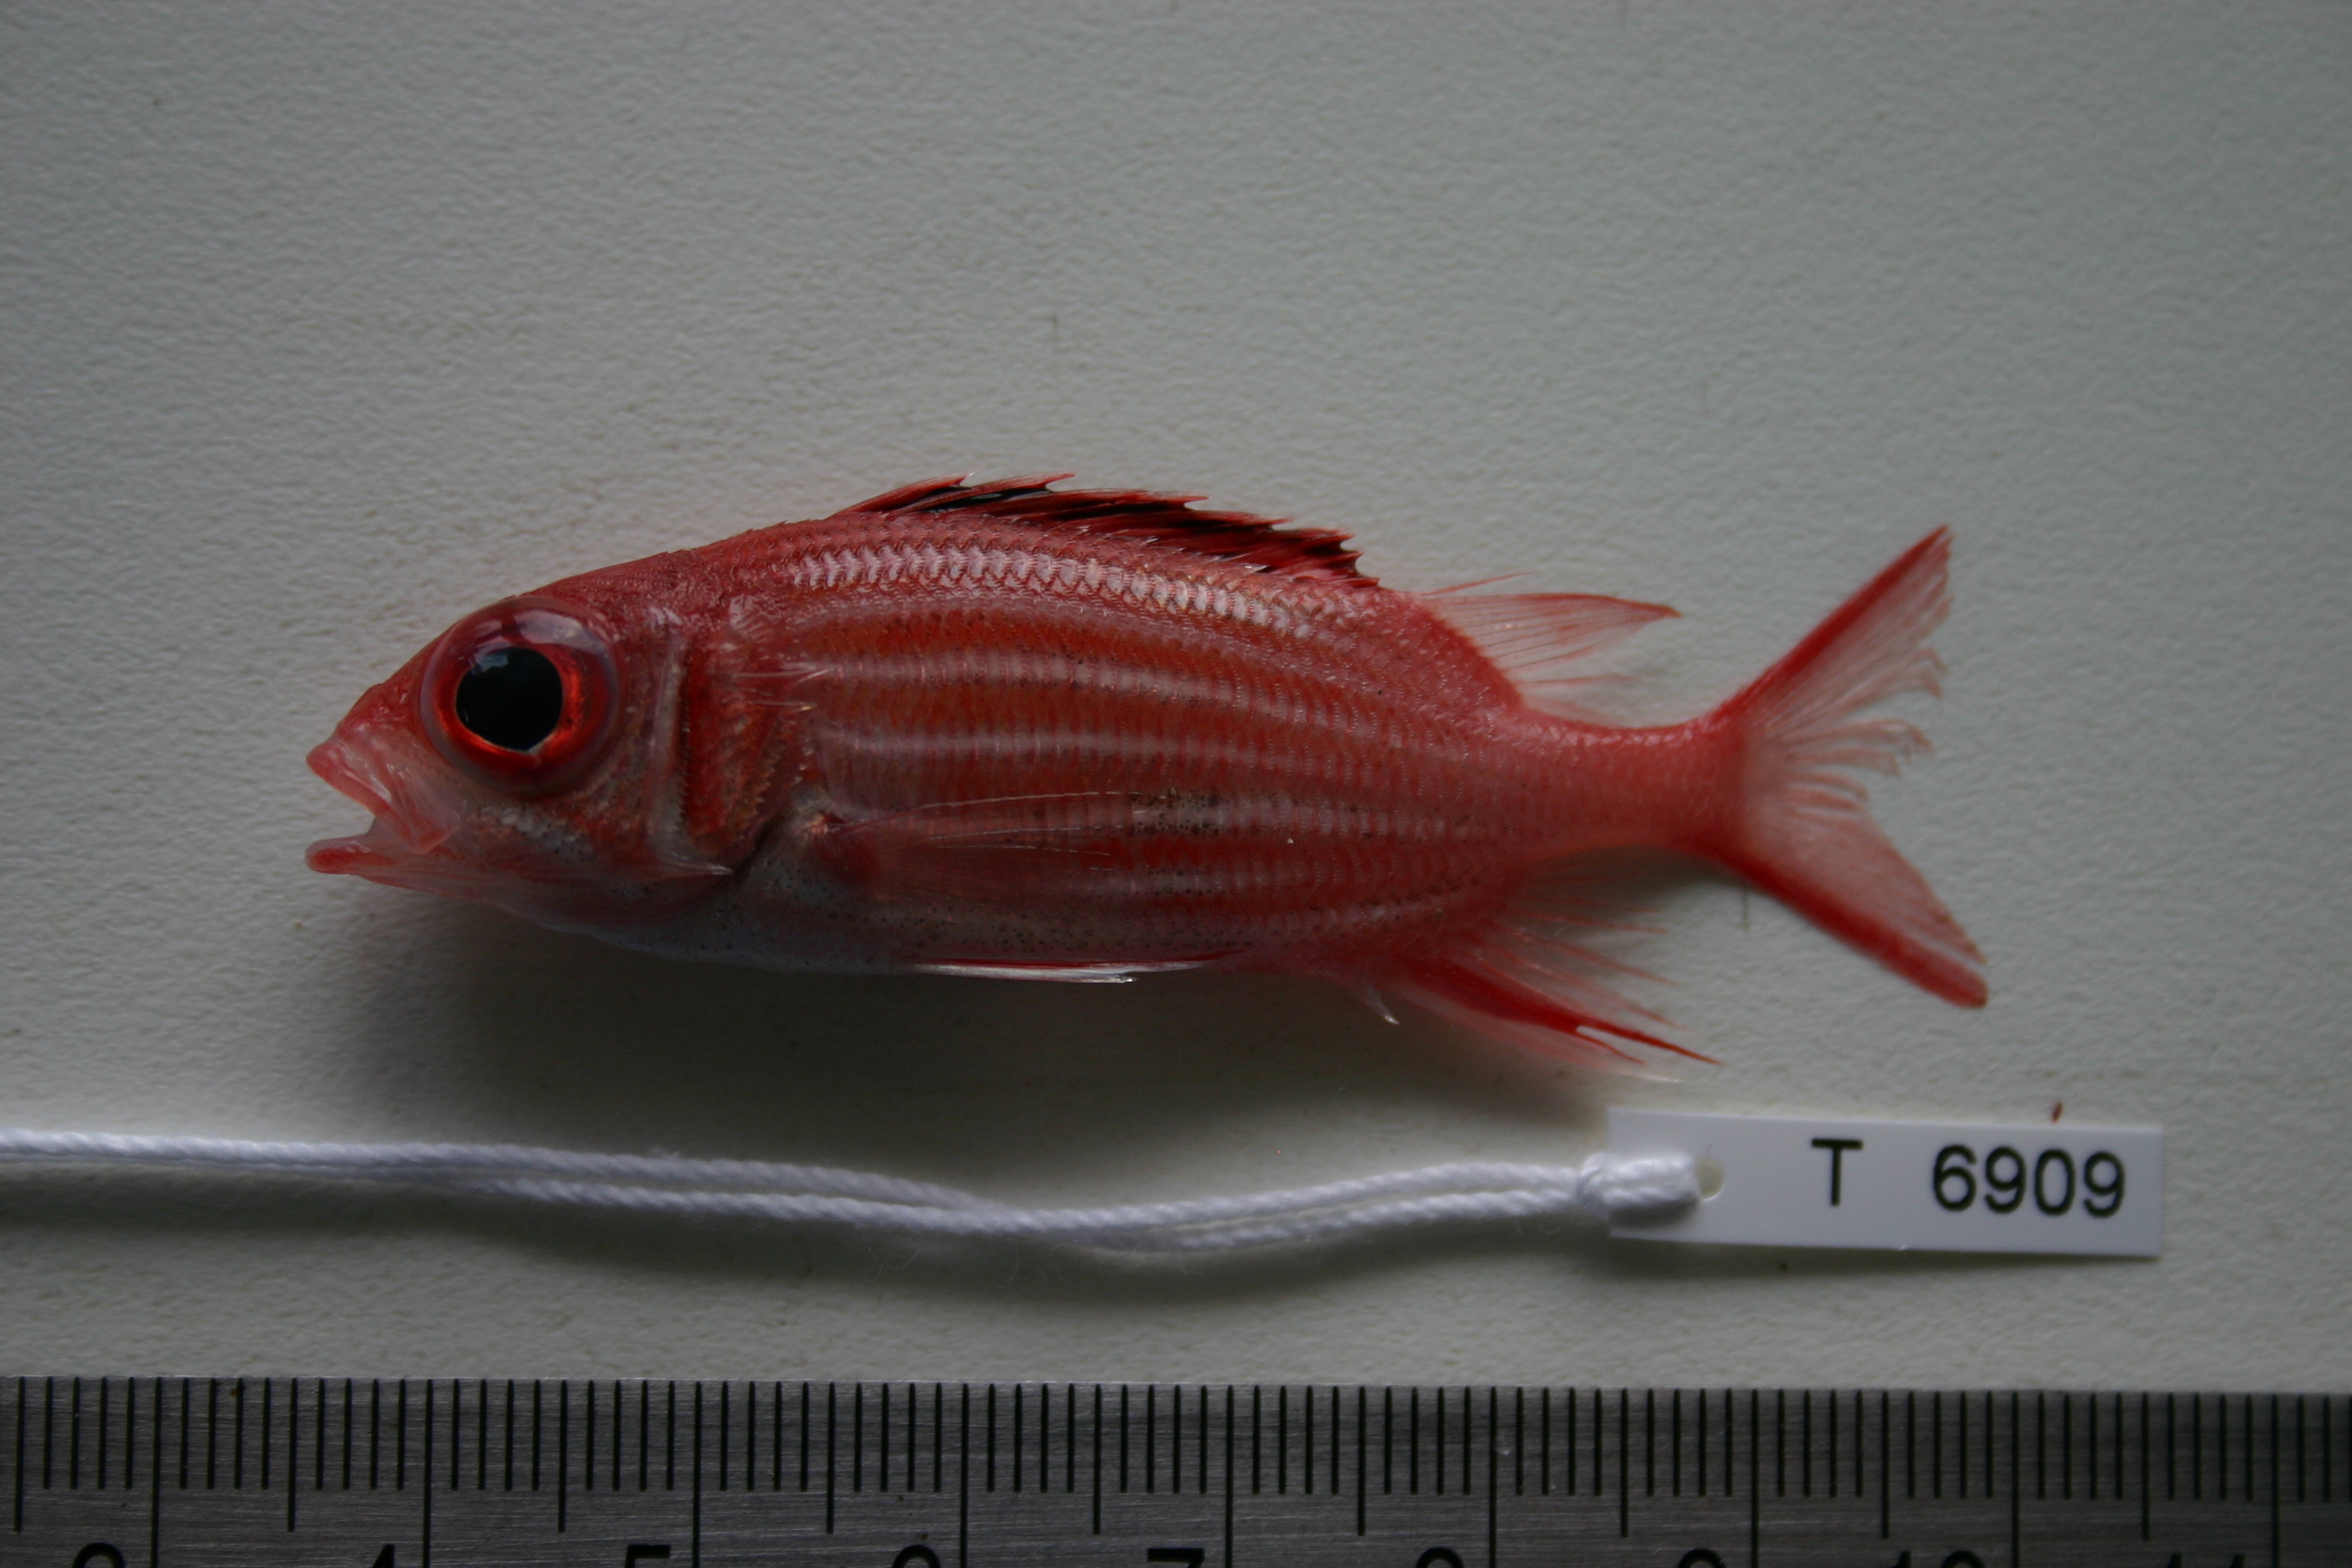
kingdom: Animalia
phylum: Chordata
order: Beryciformes
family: Holocentridae
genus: Sargocentron
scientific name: Sargocentron diadema
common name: Crown squirrelfish
